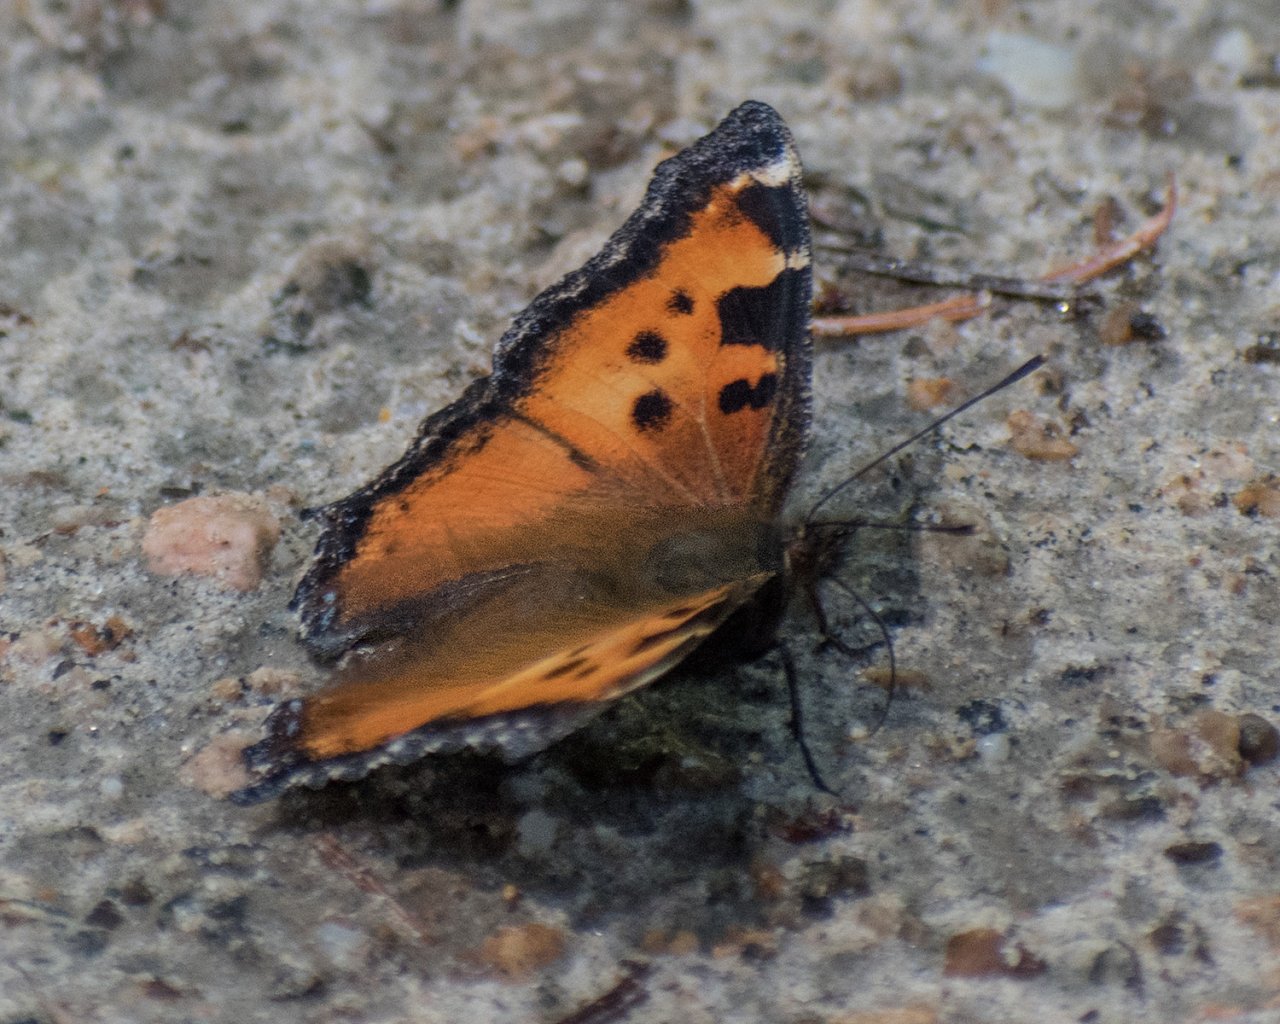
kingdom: Animalia
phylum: Arthropoda
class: Insecta
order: Lepidoptera
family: Nymphalidae
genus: Nymphalis
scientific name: Nymphalis californica
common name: California Tortoiseshell
